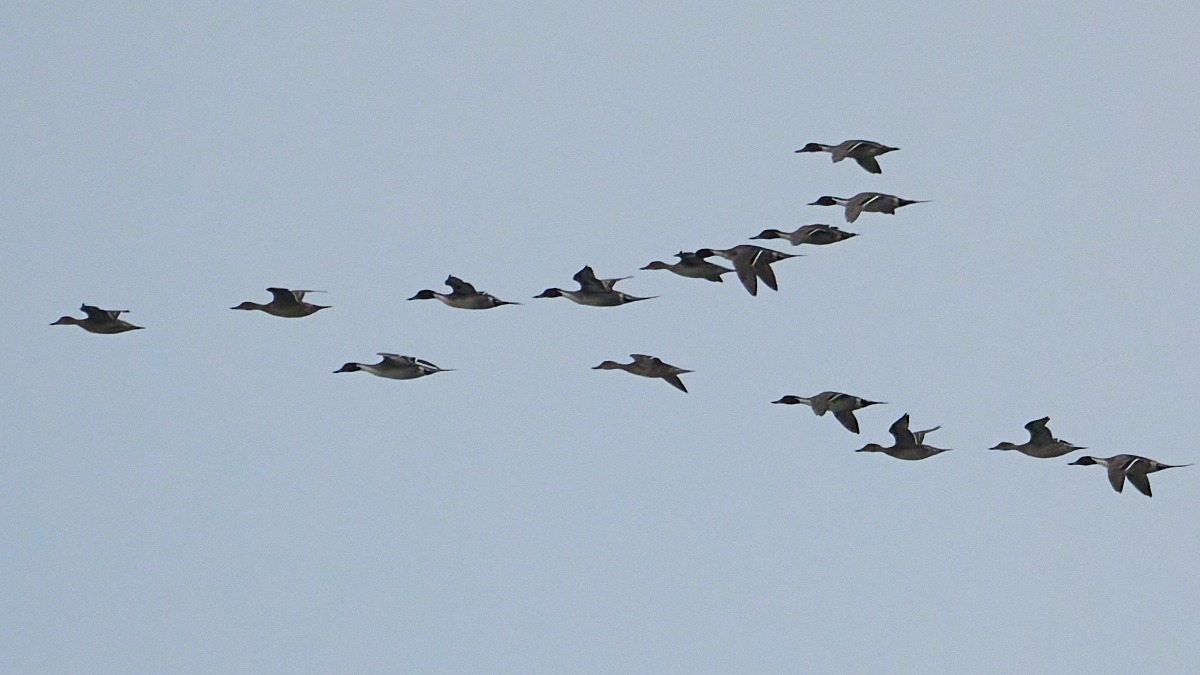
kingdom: Animalia
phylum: Chordata
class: Aves
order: Anseriformes
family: Anatidae
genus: Anas
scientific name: Anas acuta
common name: Spidsand
